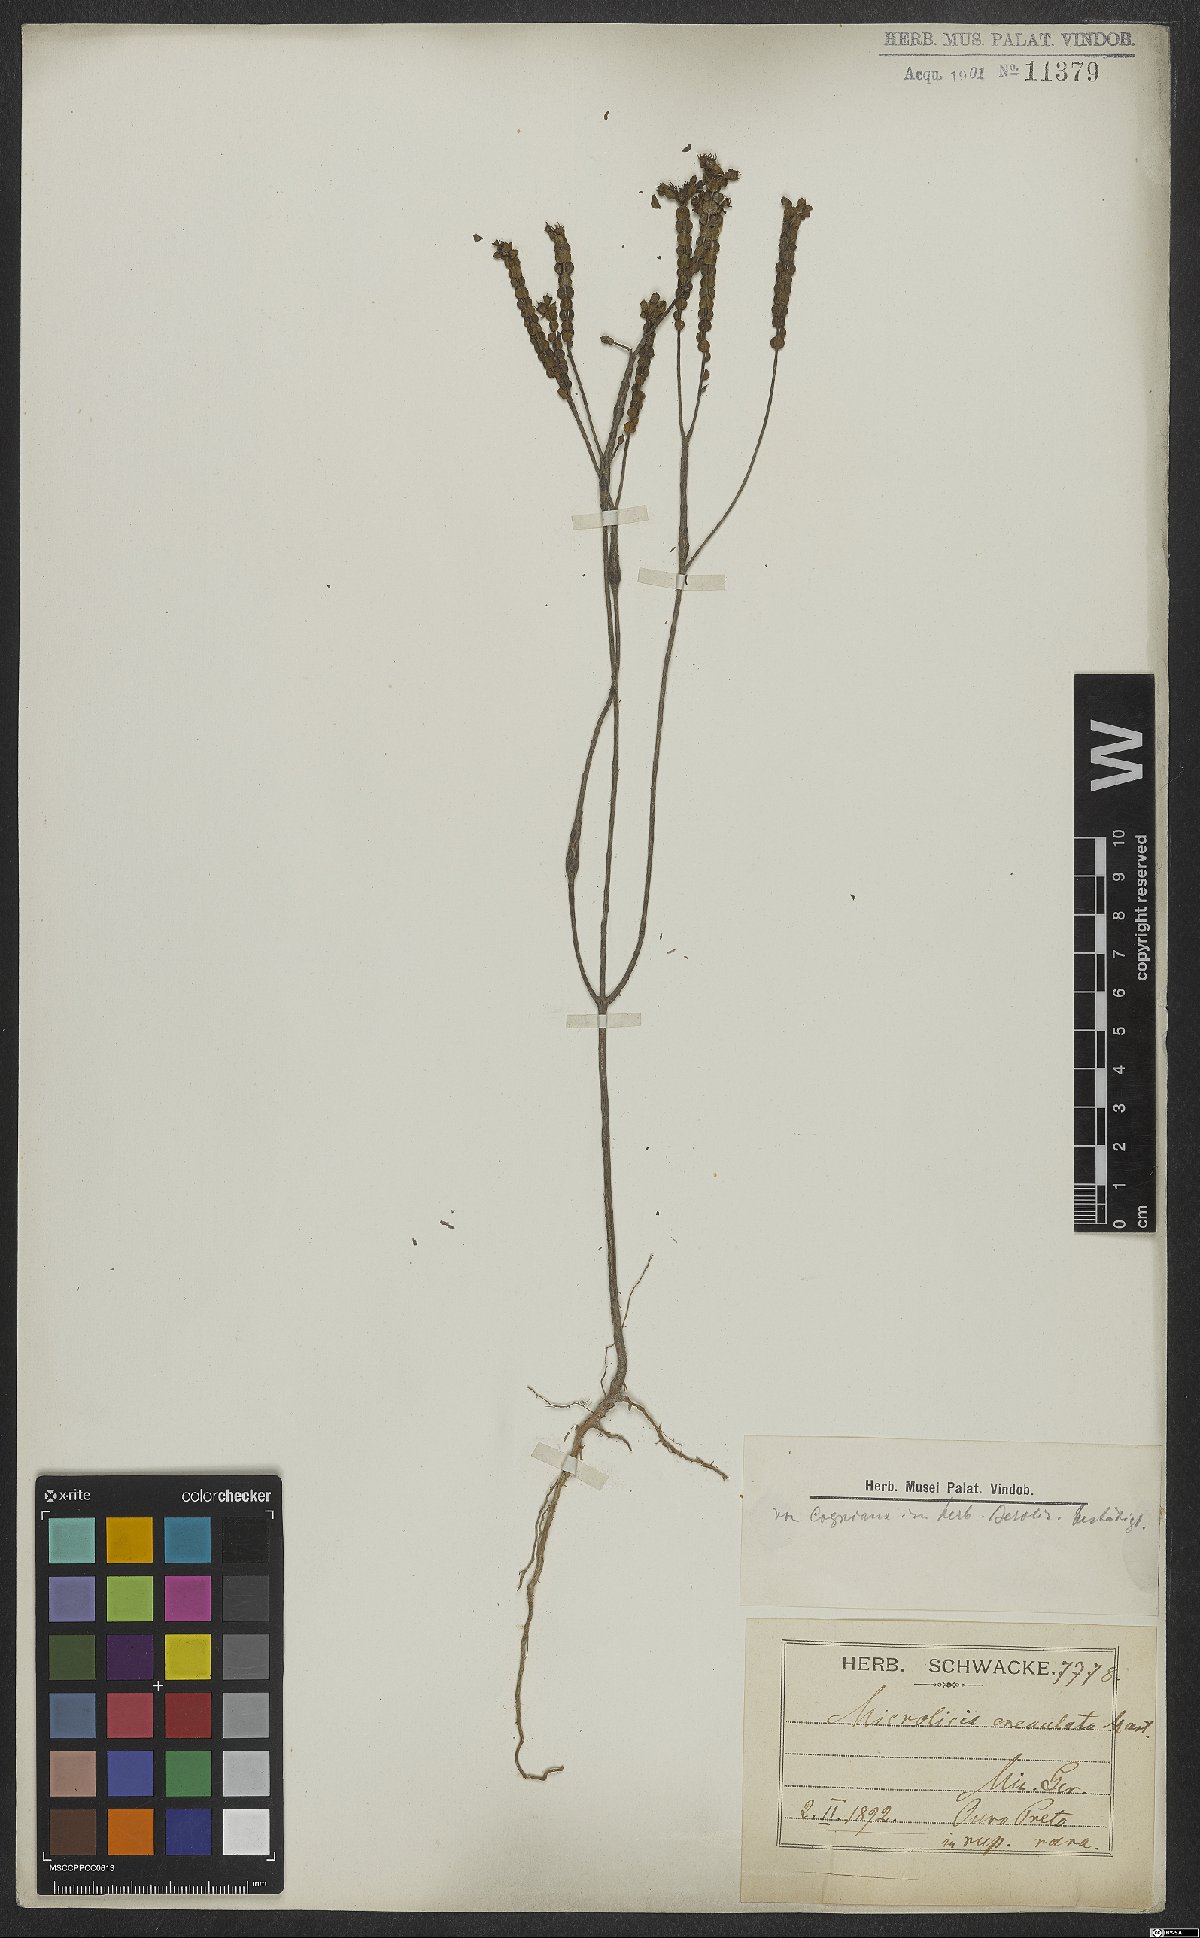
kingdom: Plantae
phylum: Tracheophyta
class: Magnoliopsida
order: Myrtales
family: Melastomataceae
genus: Microlicia
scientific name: Microlicia crenulata
